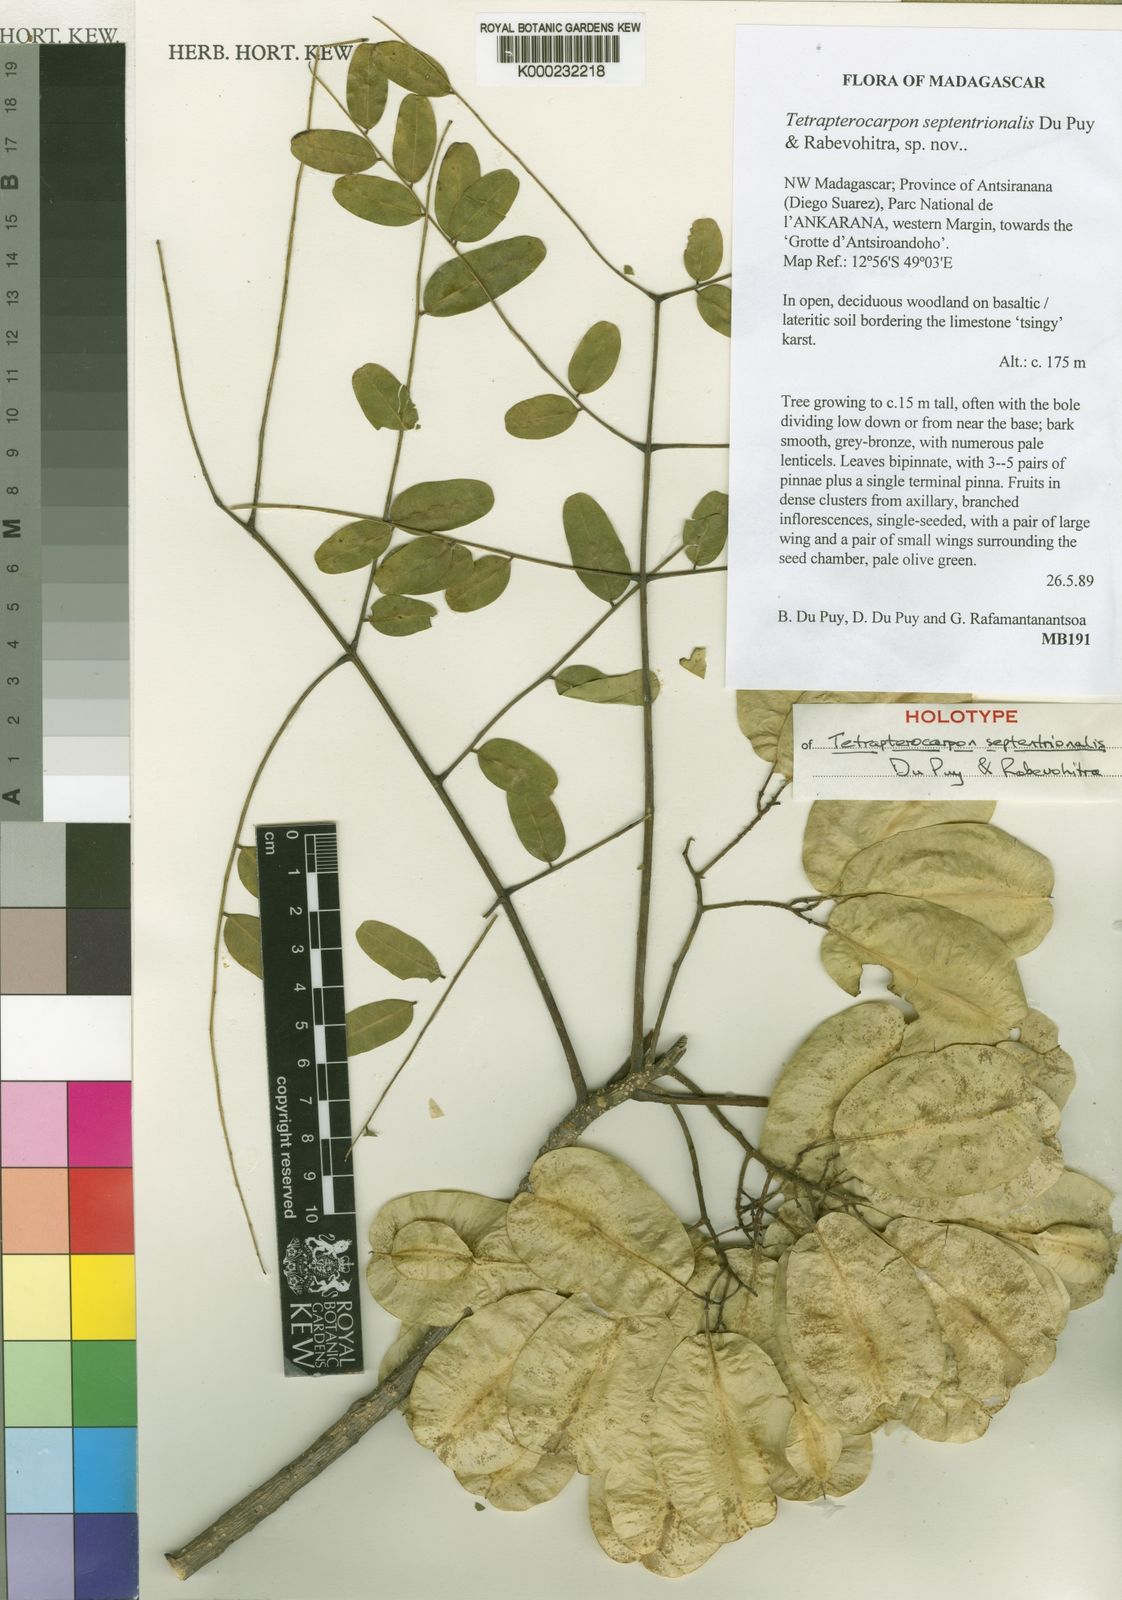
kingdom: Plantae
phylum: Tracheophyta
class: Magnoliopsida
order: Fabales
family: Fabaceae
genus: Tetrapterocarpon
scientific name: Tetrapterocarpon septentrionale
